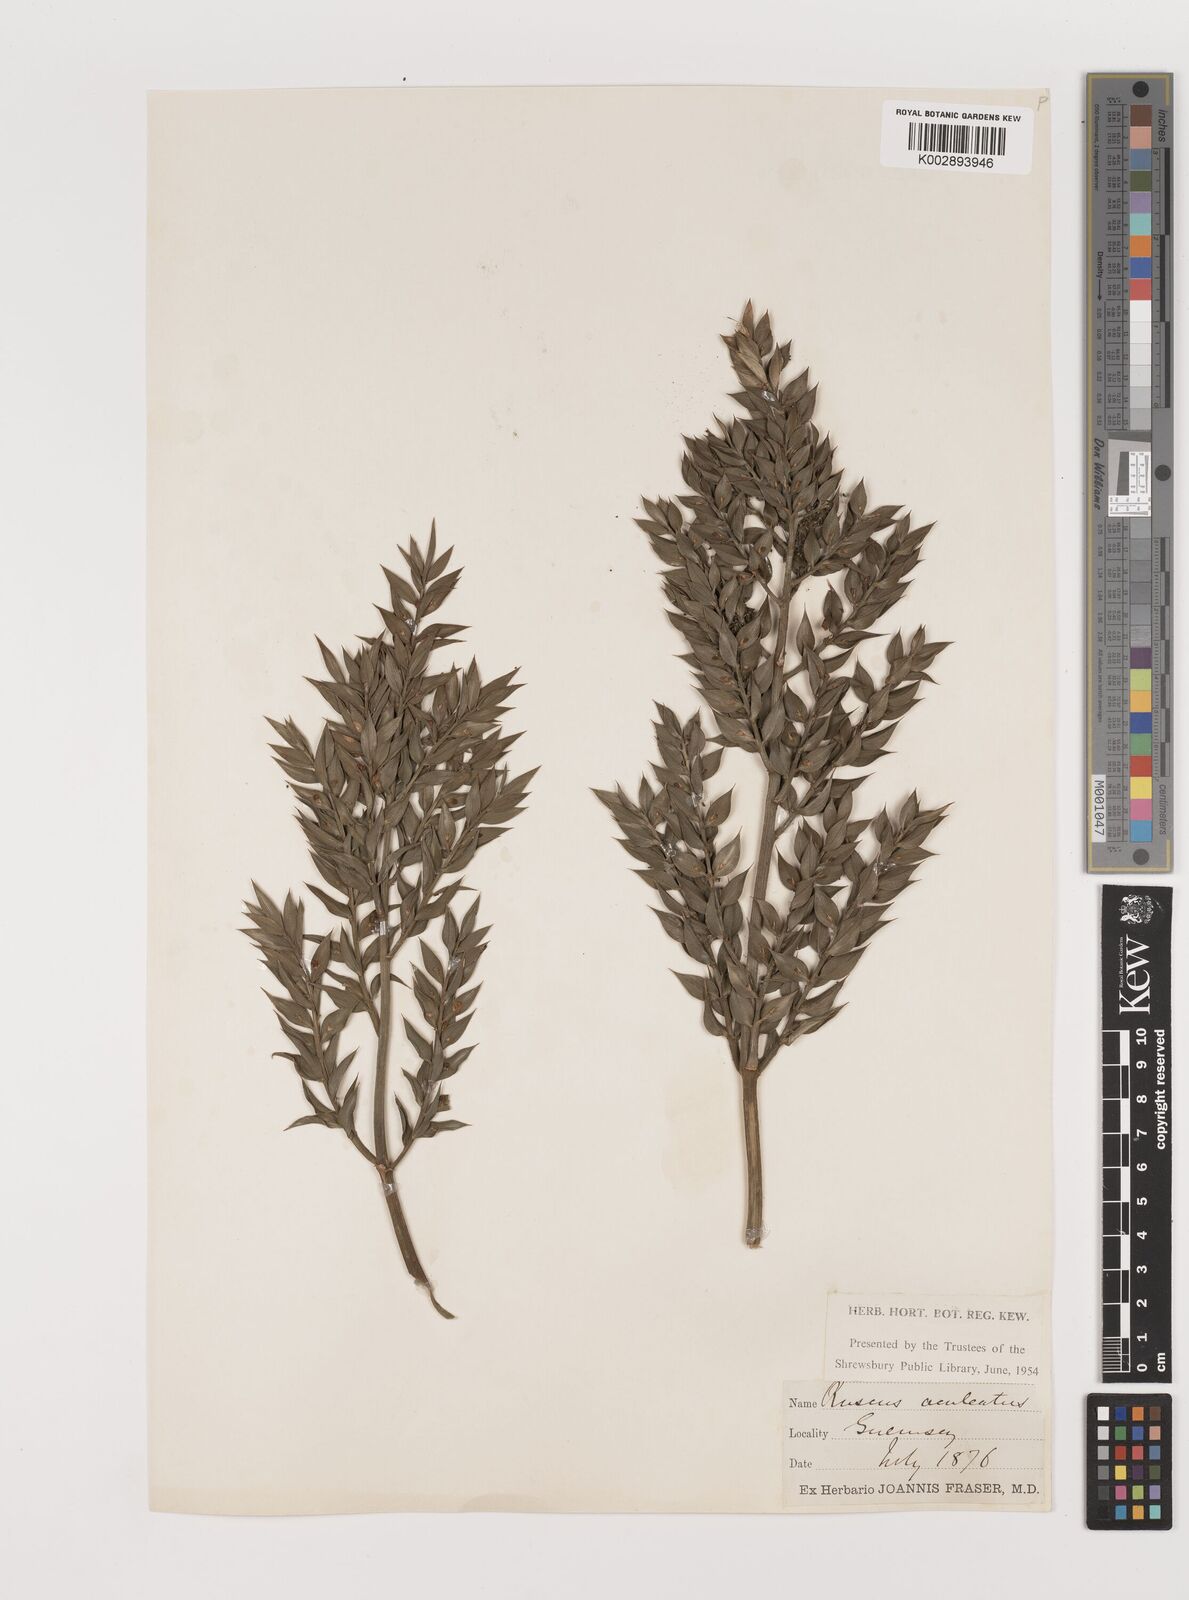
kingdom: Plantae
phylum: Tracheophyta
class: Liliopsida
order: Asparagales
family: Asparagaceae
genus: Ruscus
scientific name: Ruscus aculeatus
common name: Butcher's-broom
